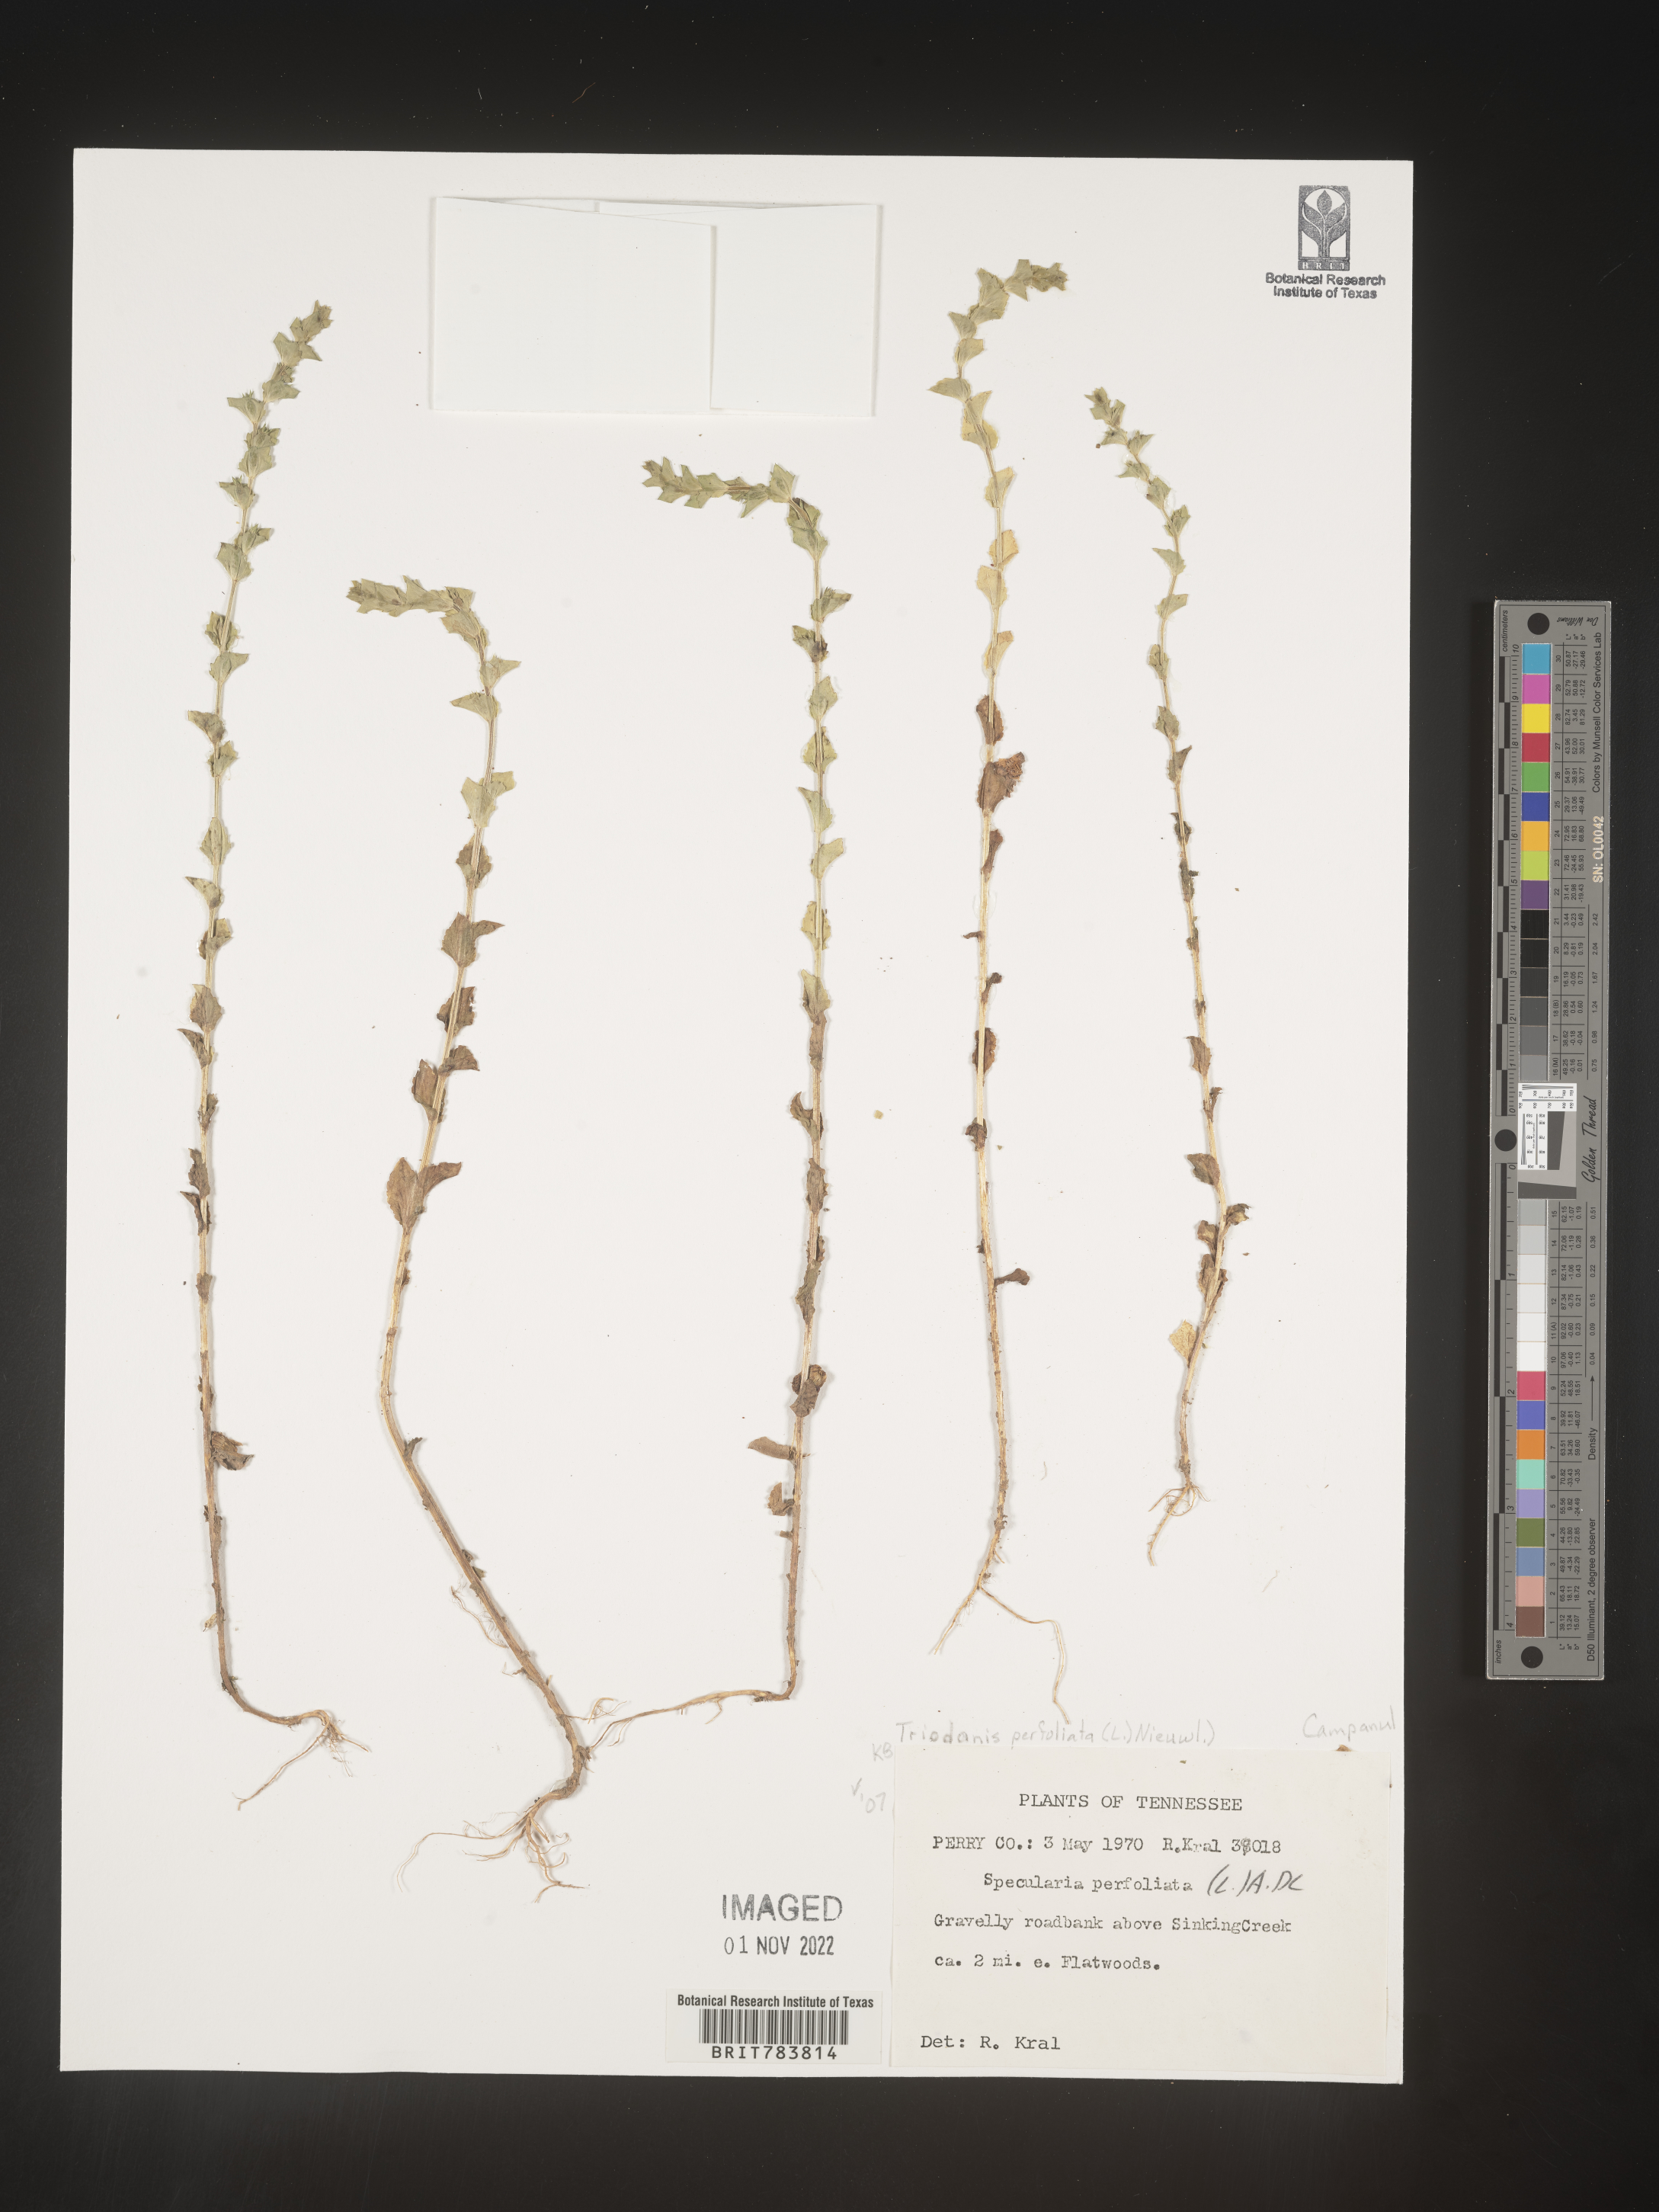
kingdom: Plantae
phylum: Tracheophyta
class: Magnoliopsida
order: Asterales
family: Campanulaceae
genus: Triodanis
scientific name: Triodanis perfoliata
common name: Clasping venus' looking-glass
